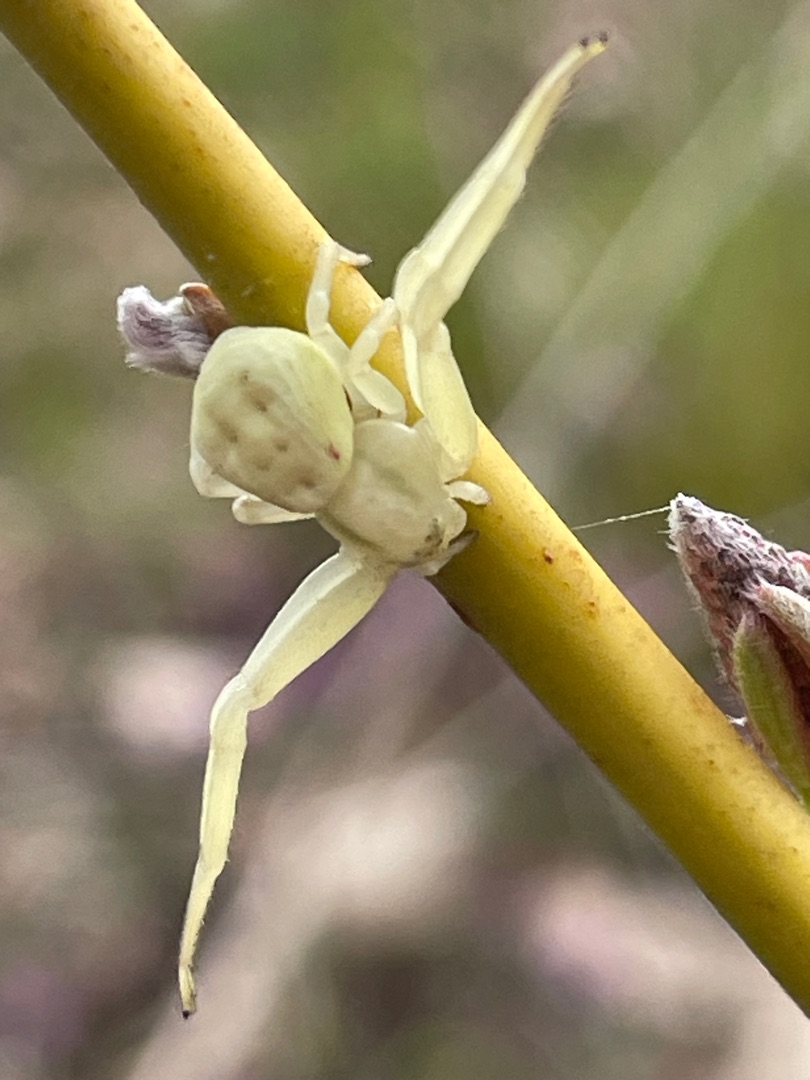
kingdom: Animalia
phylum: Arthropoda
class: Arachnida
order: Araneae
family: Thomisidae
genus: Misumena
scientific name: Misumena vatia
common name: Kamæleonedderkop
